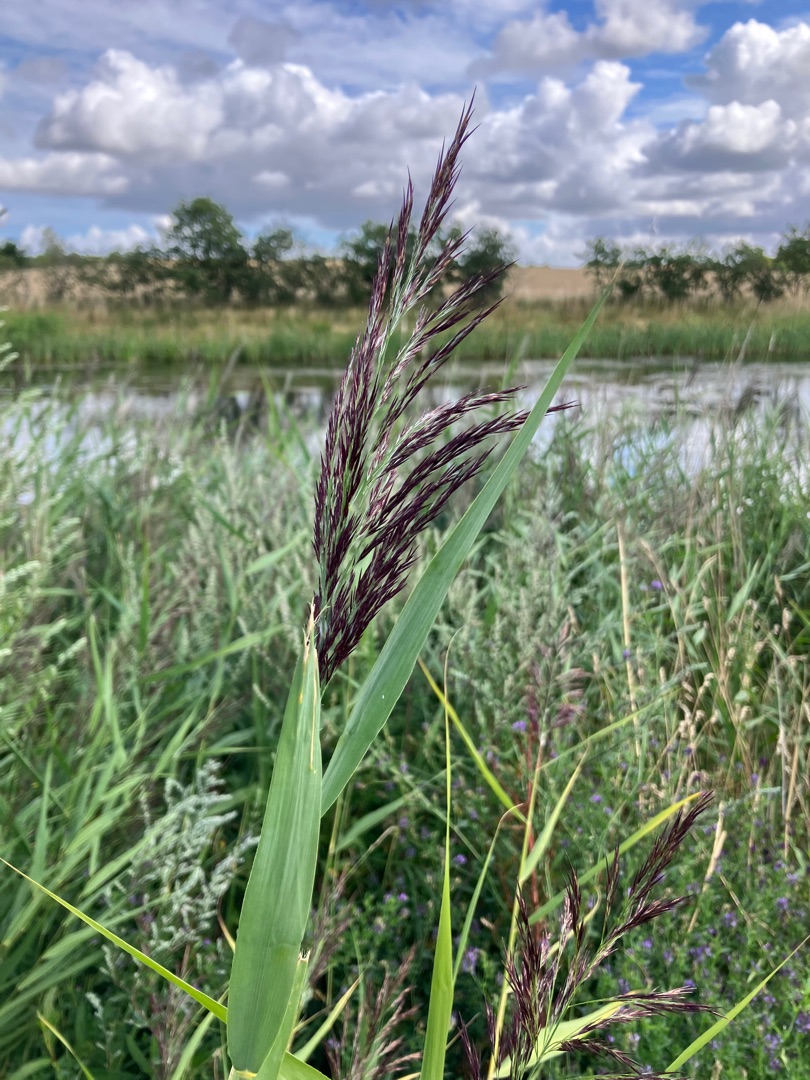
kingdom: Plantae
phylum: Tracheophyta
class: Liliopsida
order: Poales
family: Poaceae
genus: Phragmites
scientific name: Phragmites australis
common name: Tagrør
